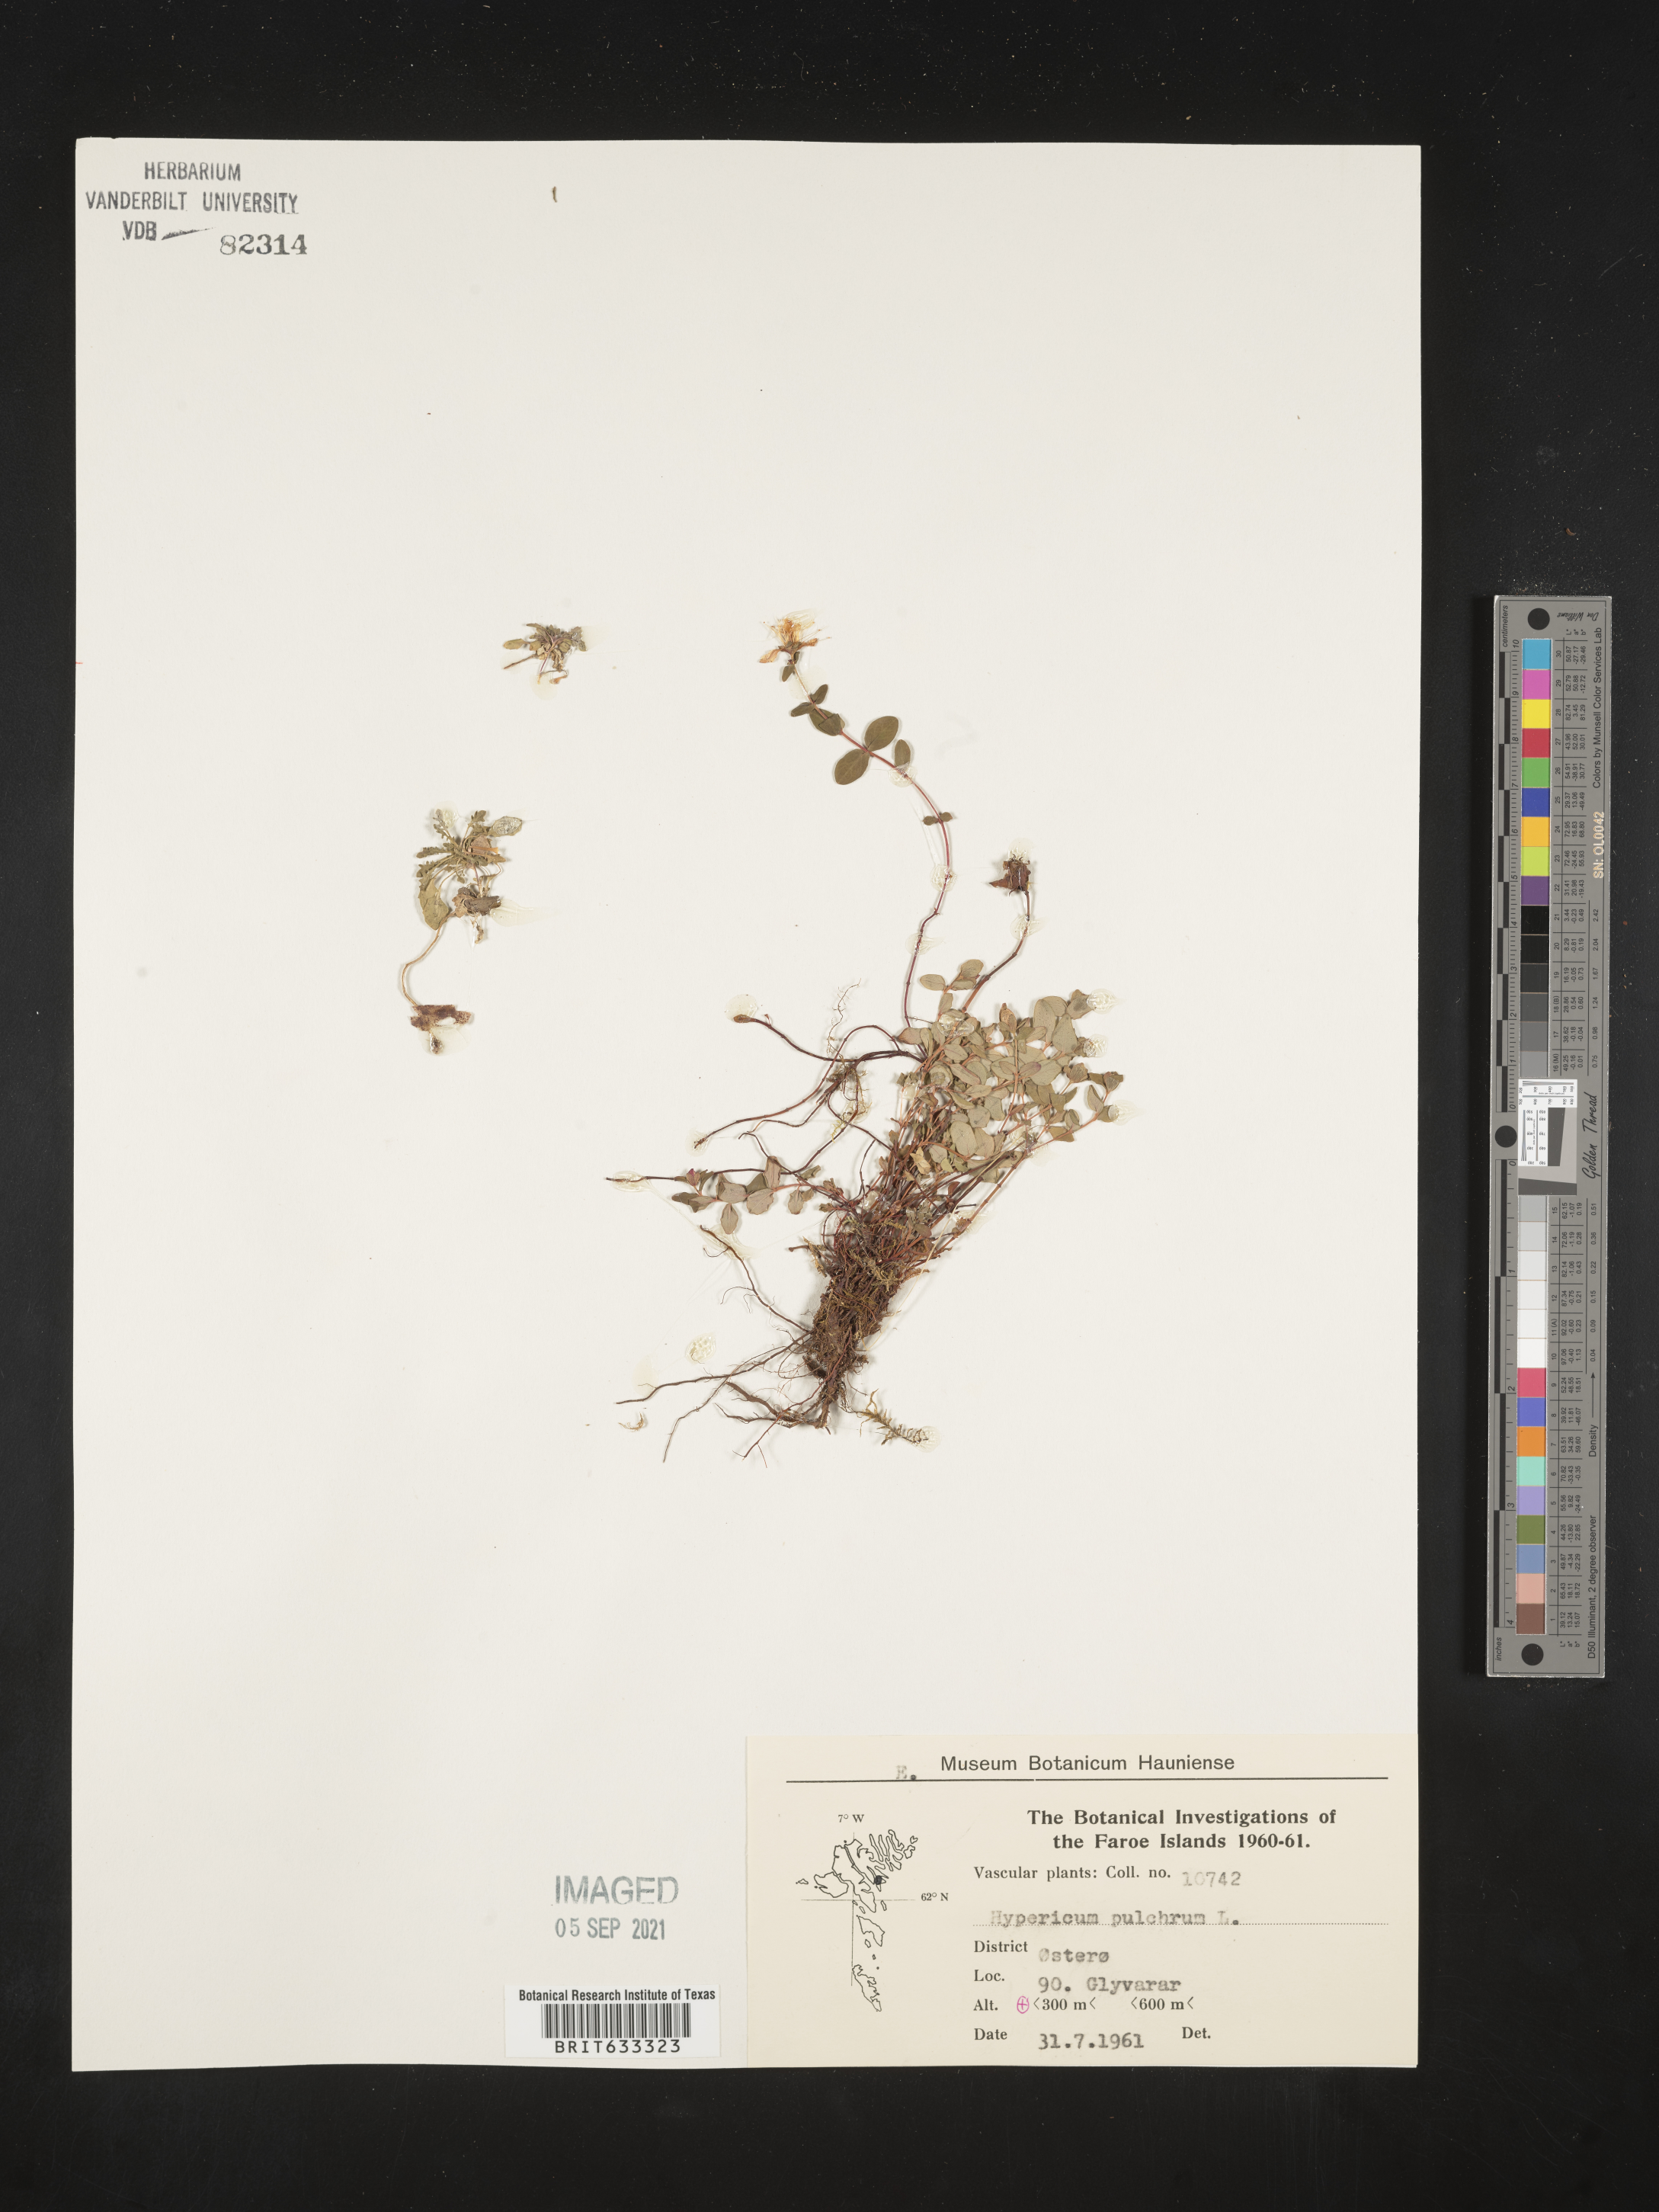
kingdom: Plantae
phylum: Tracheophyta
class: Magnoliopsida
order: Malpighiales
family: Hypericaceae
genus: Hypericum
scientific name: Hypericum
